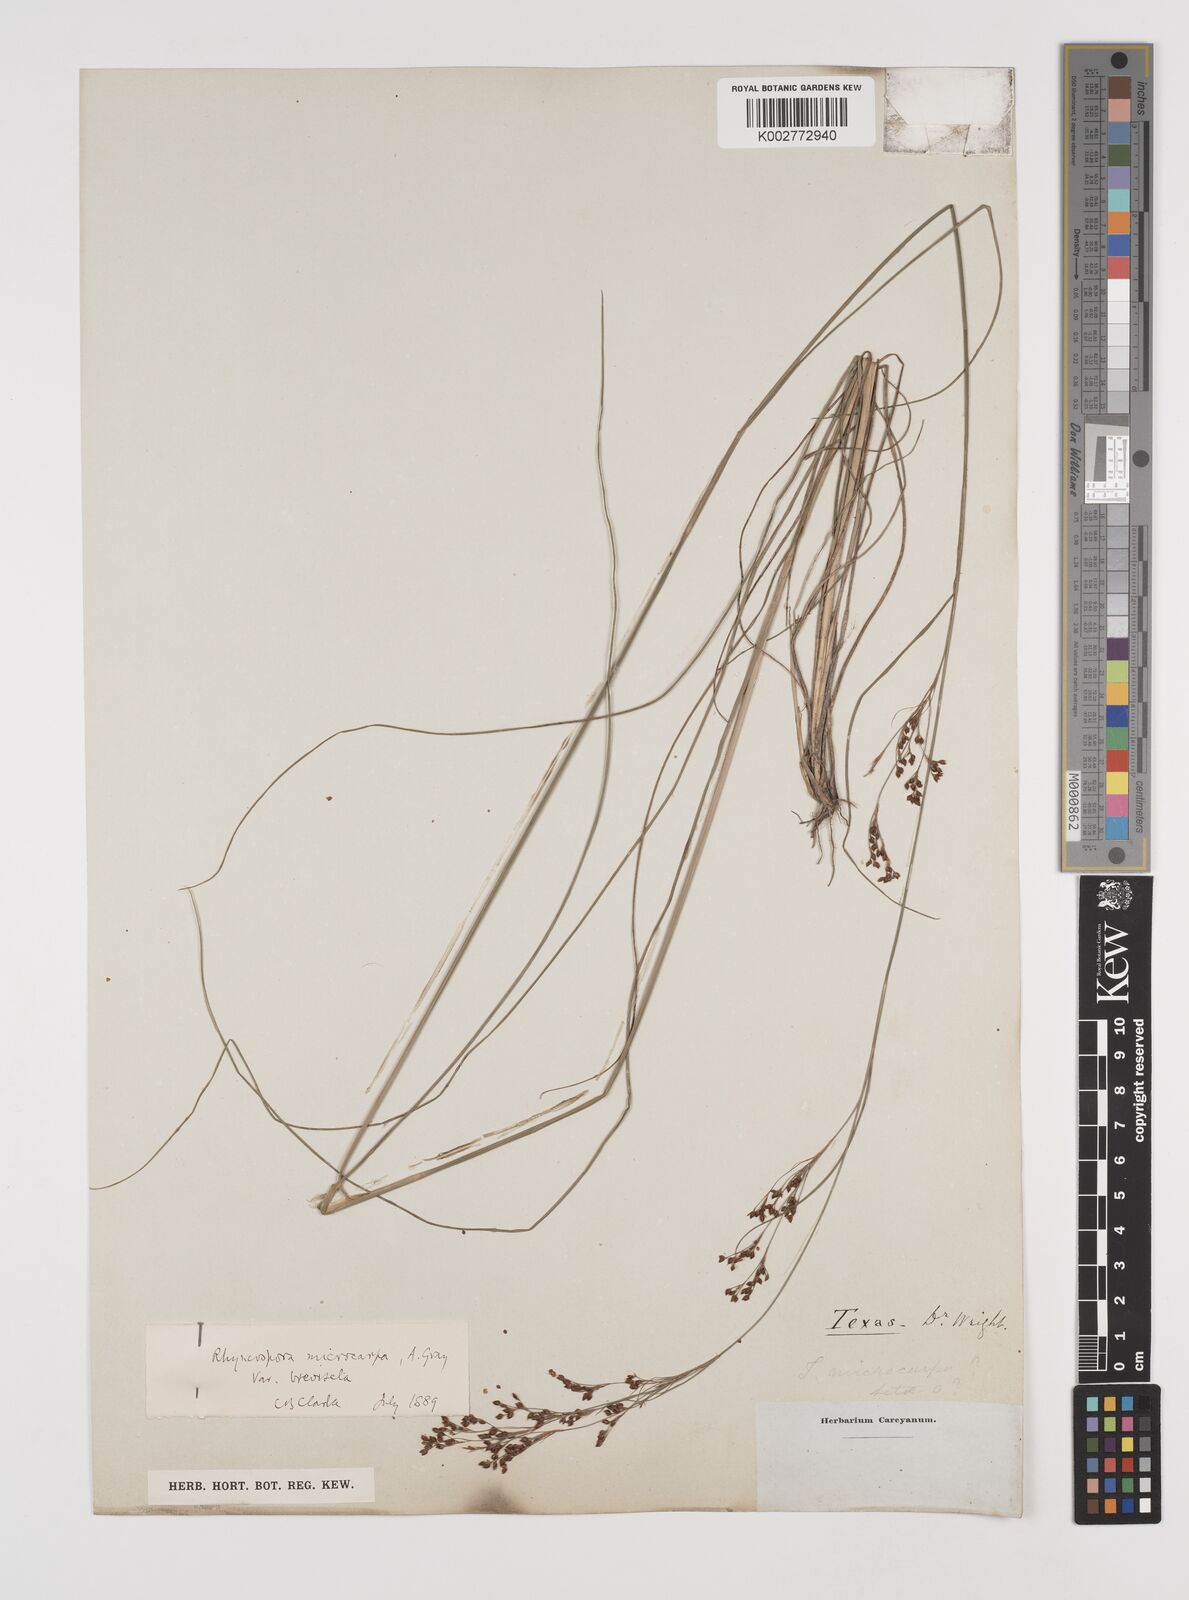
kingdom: Plantae
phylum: Tracheophyta
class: Liliopsida
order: Poales
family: Cyperaceae
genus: Rhynchospora
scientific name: Rhynchospora microcarpa
